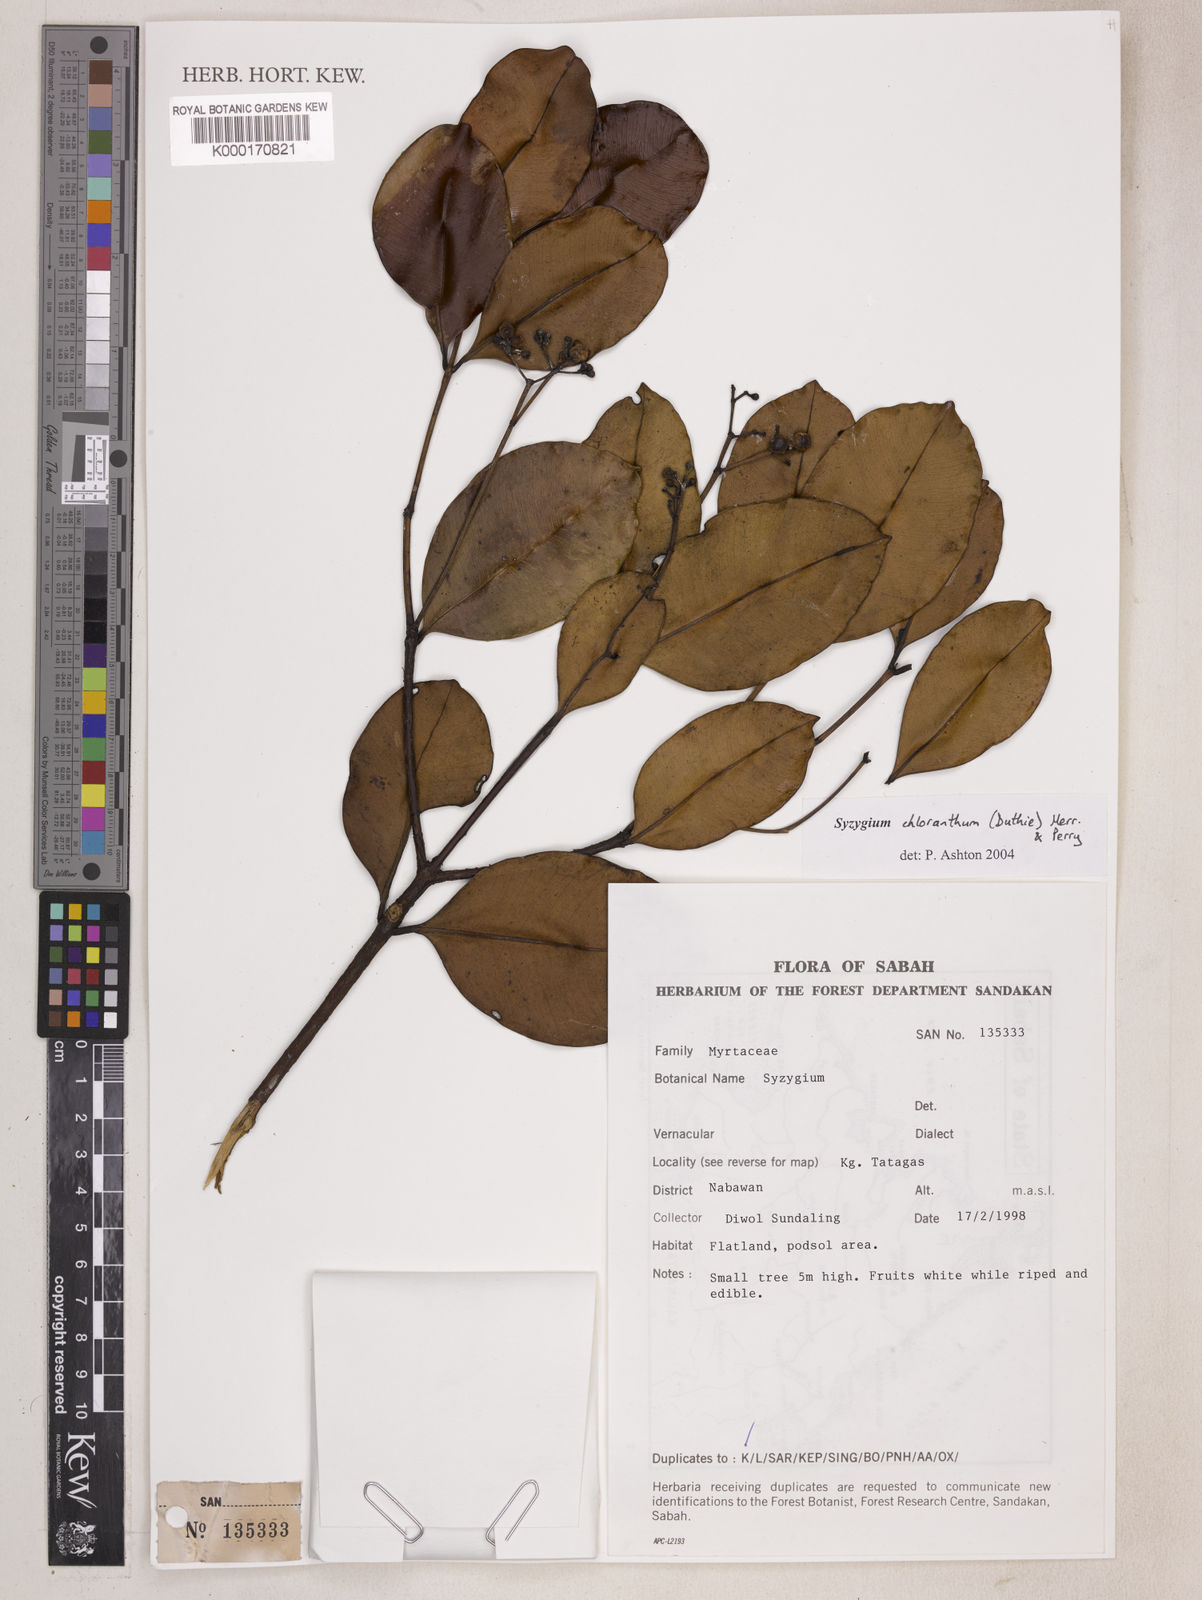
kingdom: Plantae
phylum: Tracheophyta
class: Magnoliopsida
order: Myrtales
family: Myrtaceae
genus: Syzygium
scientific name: Syzygium chloranthum
